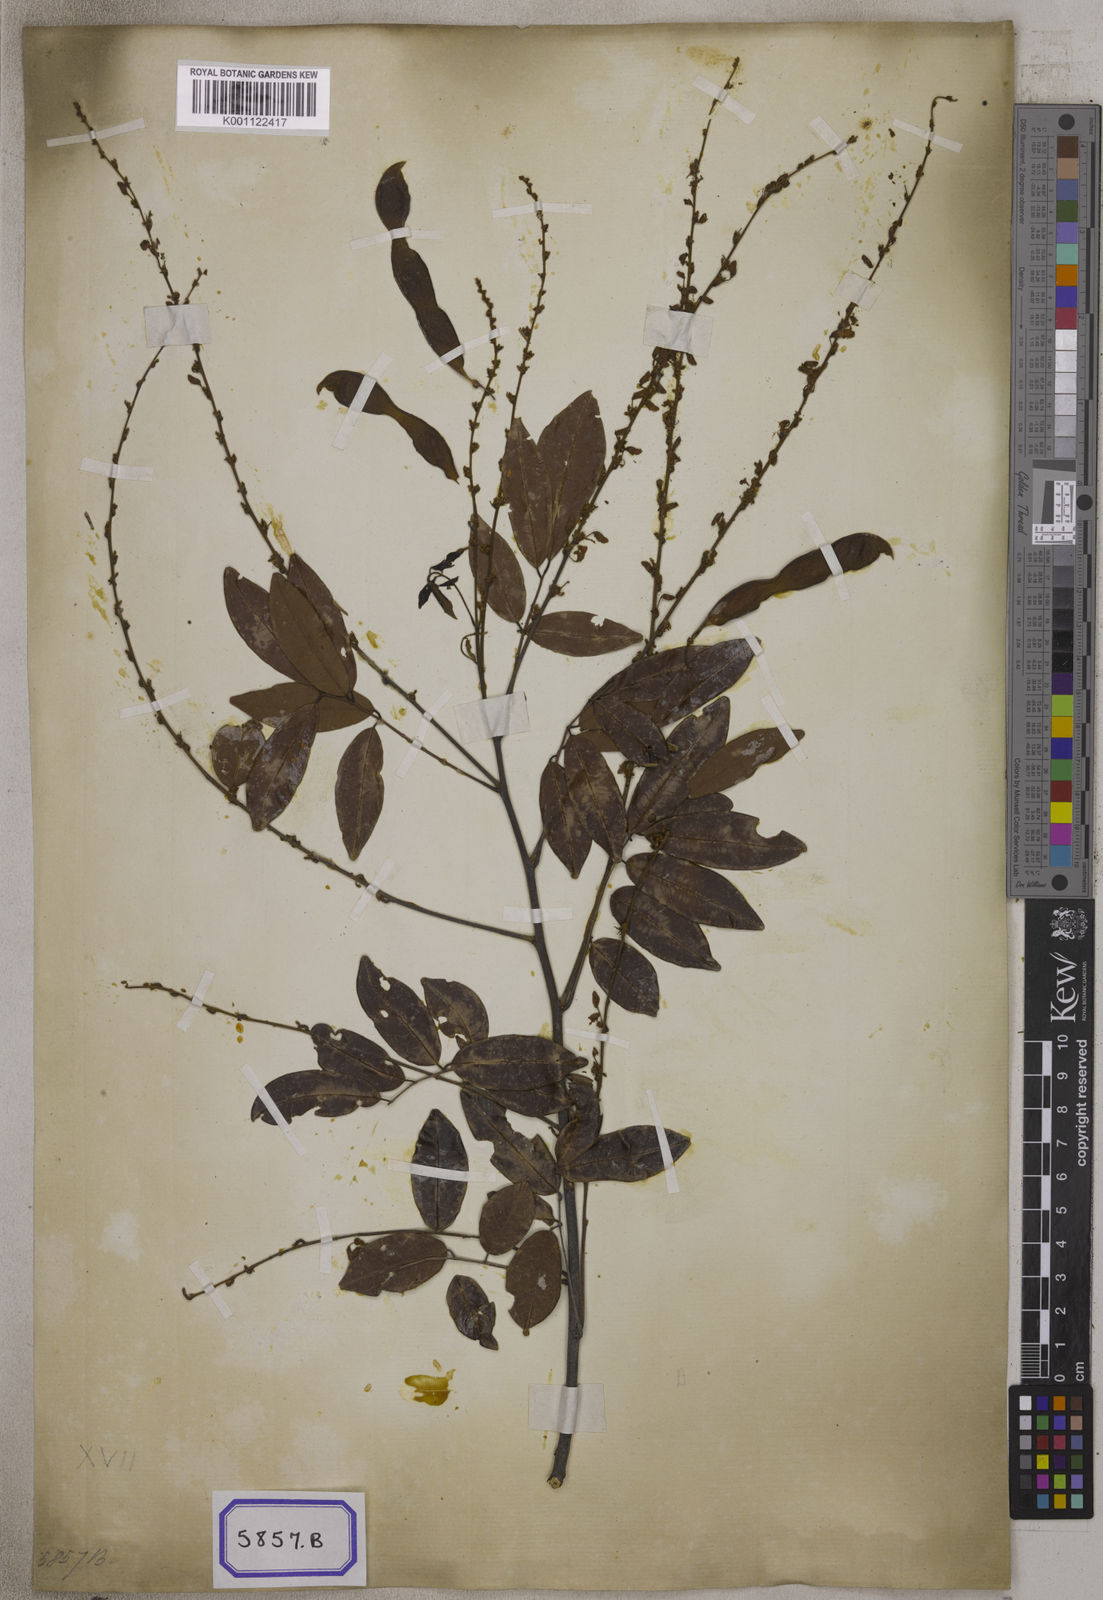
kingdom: Plantae
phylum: Tracheophyta
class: Magnoliopsida
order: Fabales
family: Fabaceae
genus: Brachypterum
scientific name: Brachypterum scandens
